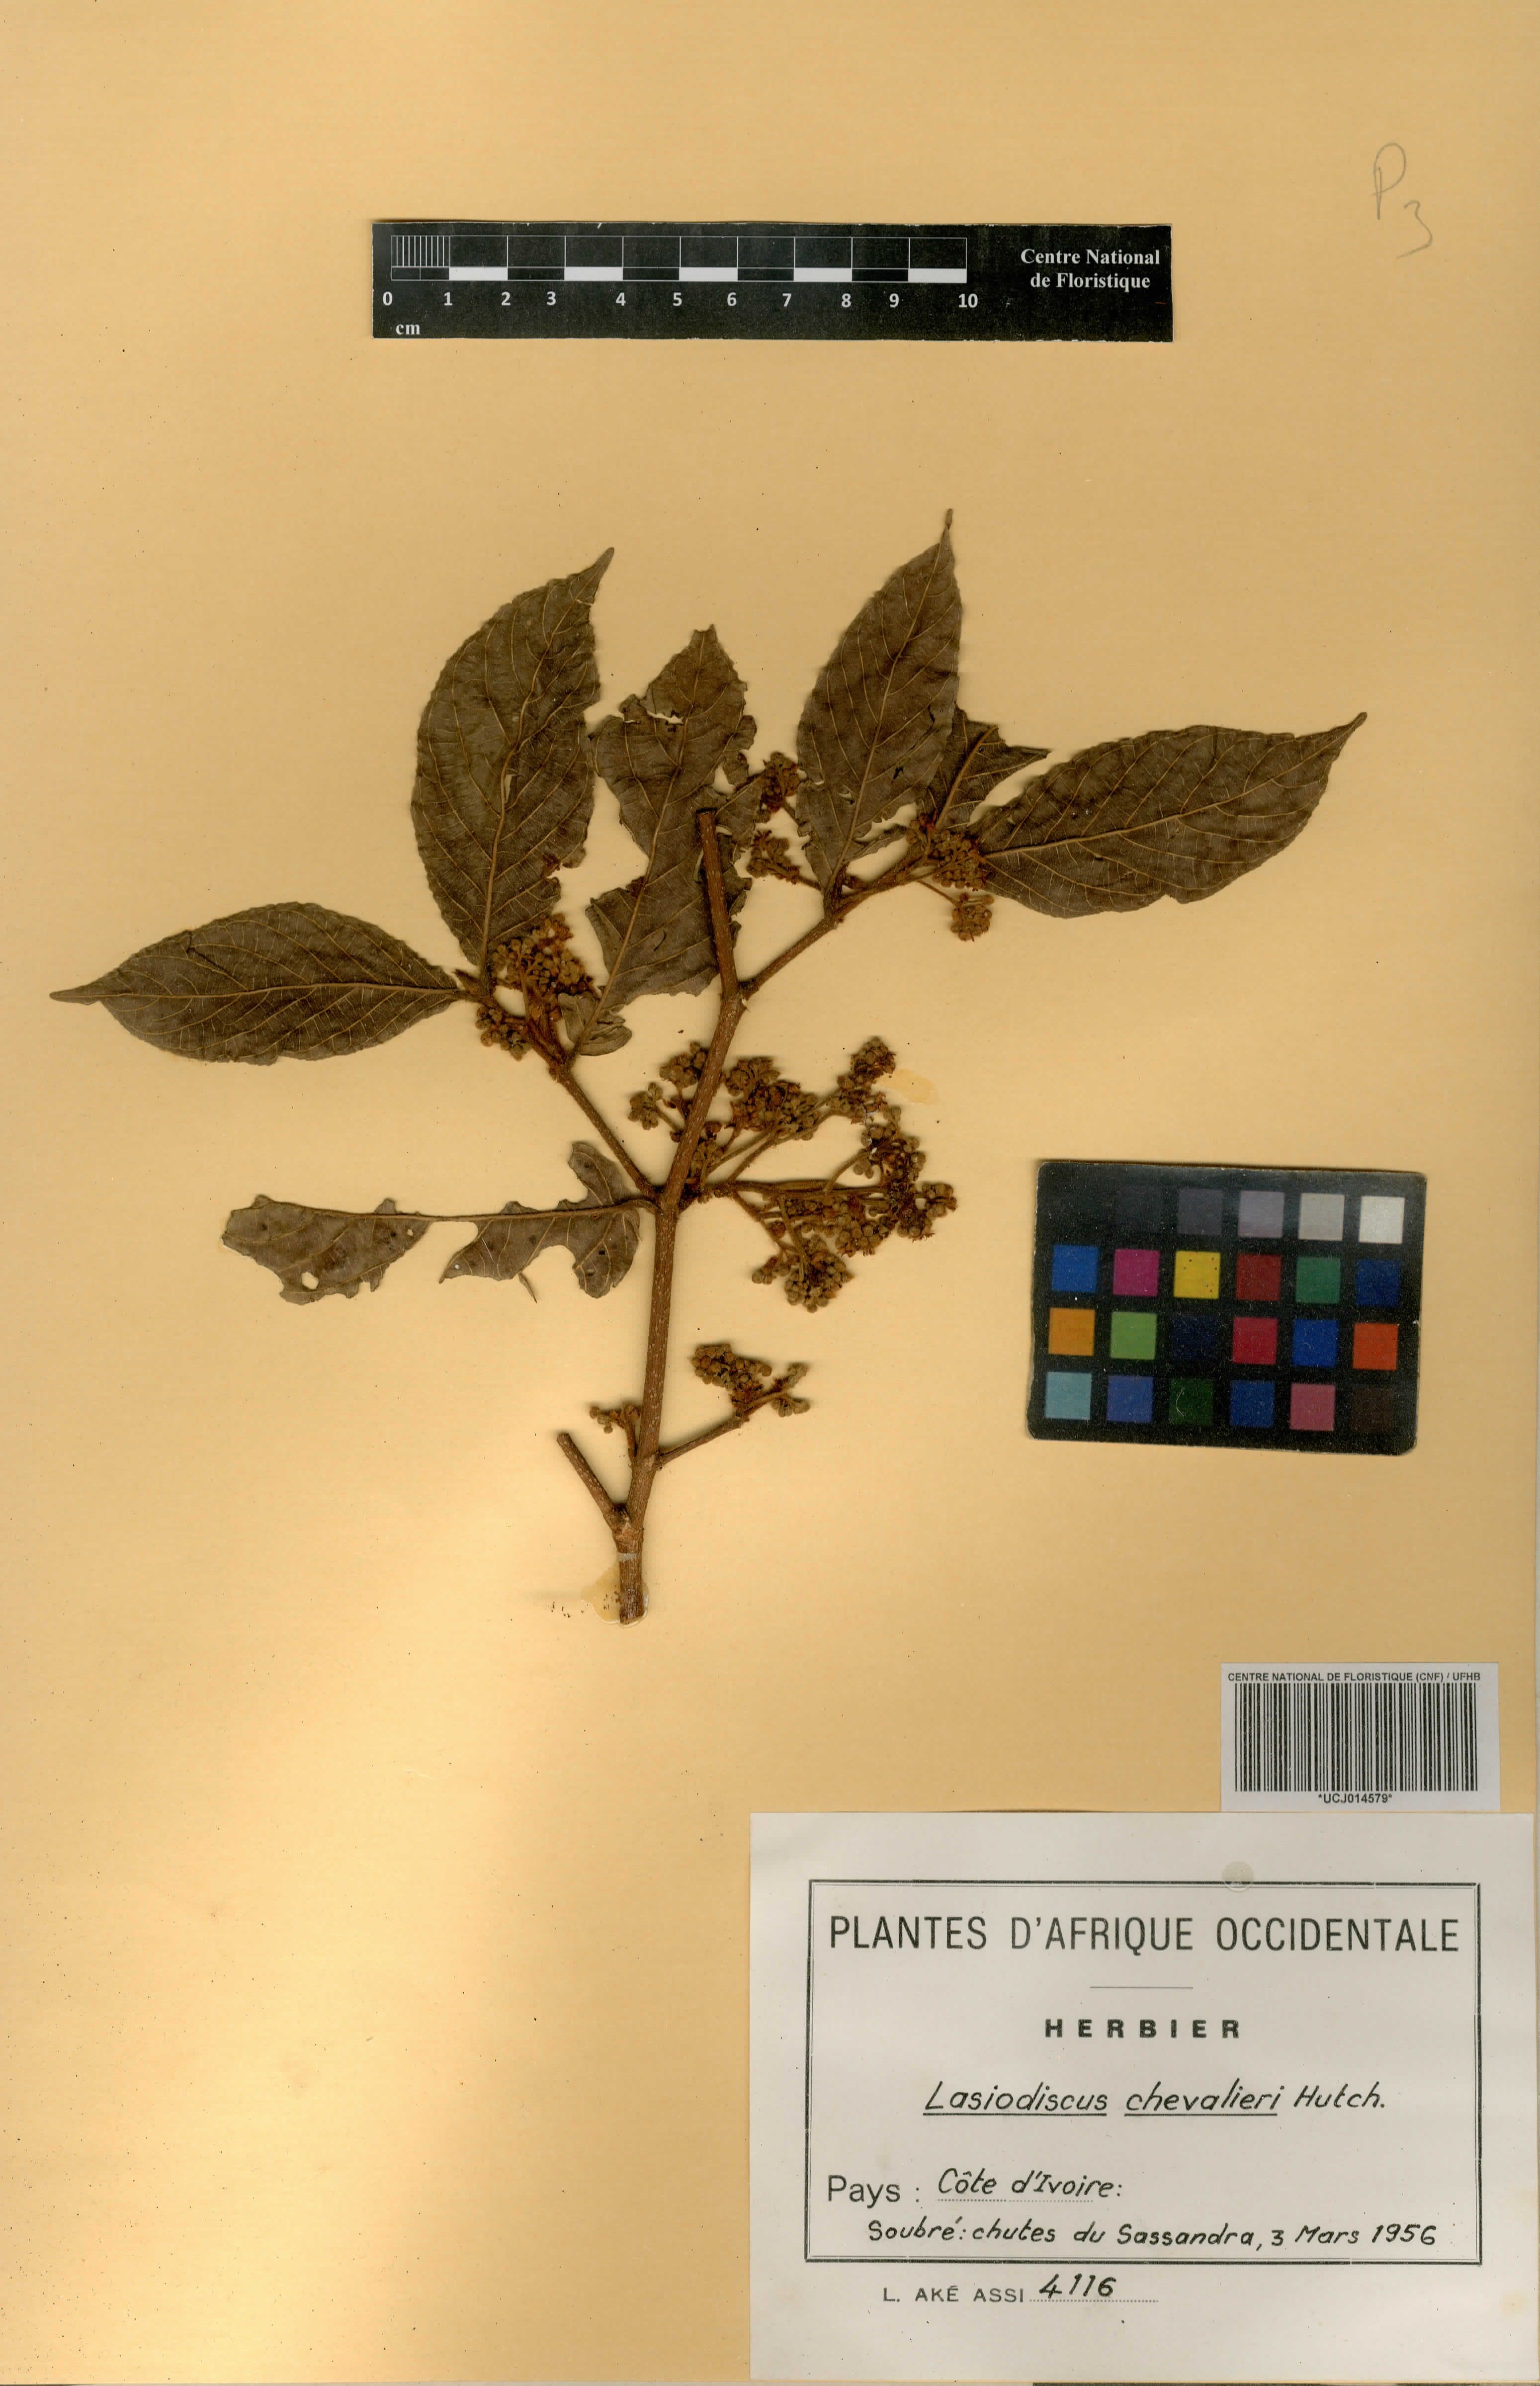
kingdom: Plantae
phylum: Tracheophyta
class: Magnoliopsida
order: Rosales
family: Rhamnaceae
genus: Lasiodiscus
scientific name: Lasiodiscus chevalieri
